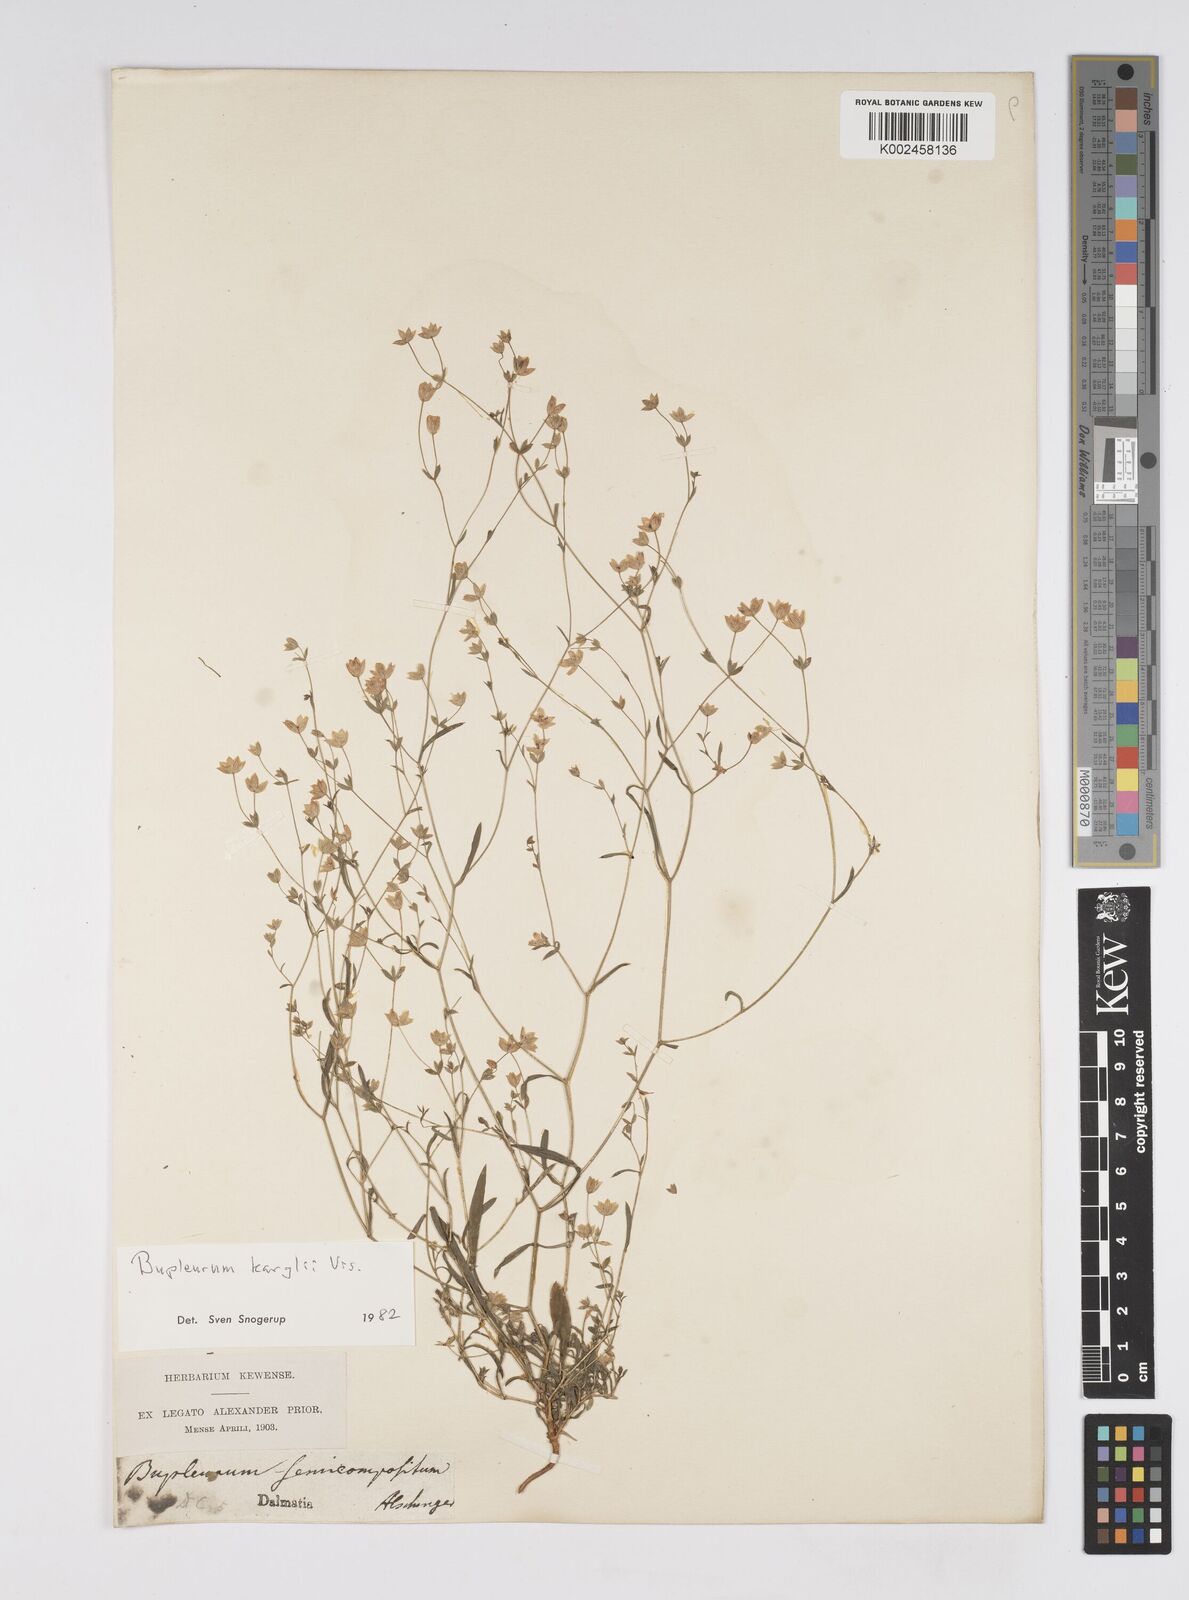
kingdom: Plantae
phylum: Tracheophyta
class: Magnoliopsida
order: Apiales
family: Apiaceae
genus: Bupleurum
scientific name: Bupleurum karglii
